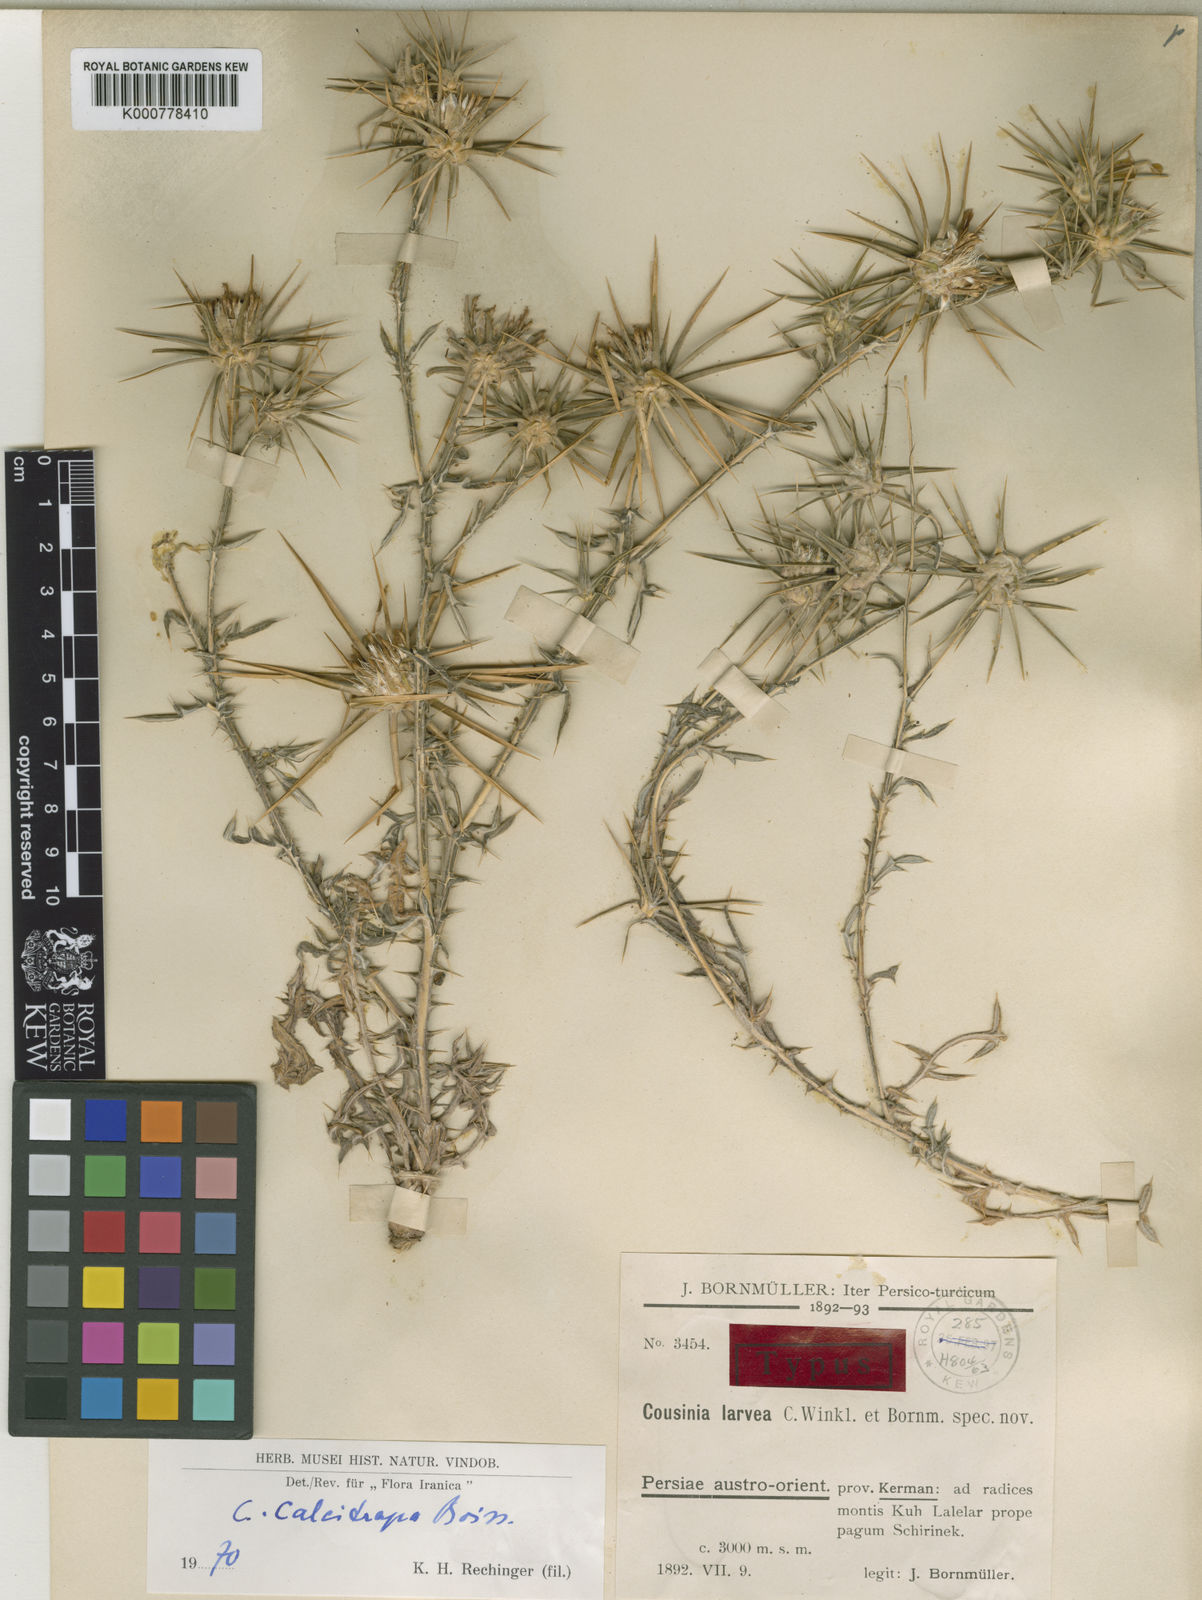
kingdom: Plantae
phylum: Tracheophyta
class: Magnoliopsida
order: Asterales
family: Asteraceae
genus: Cousinia
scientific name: Cousinia calcitrapa
